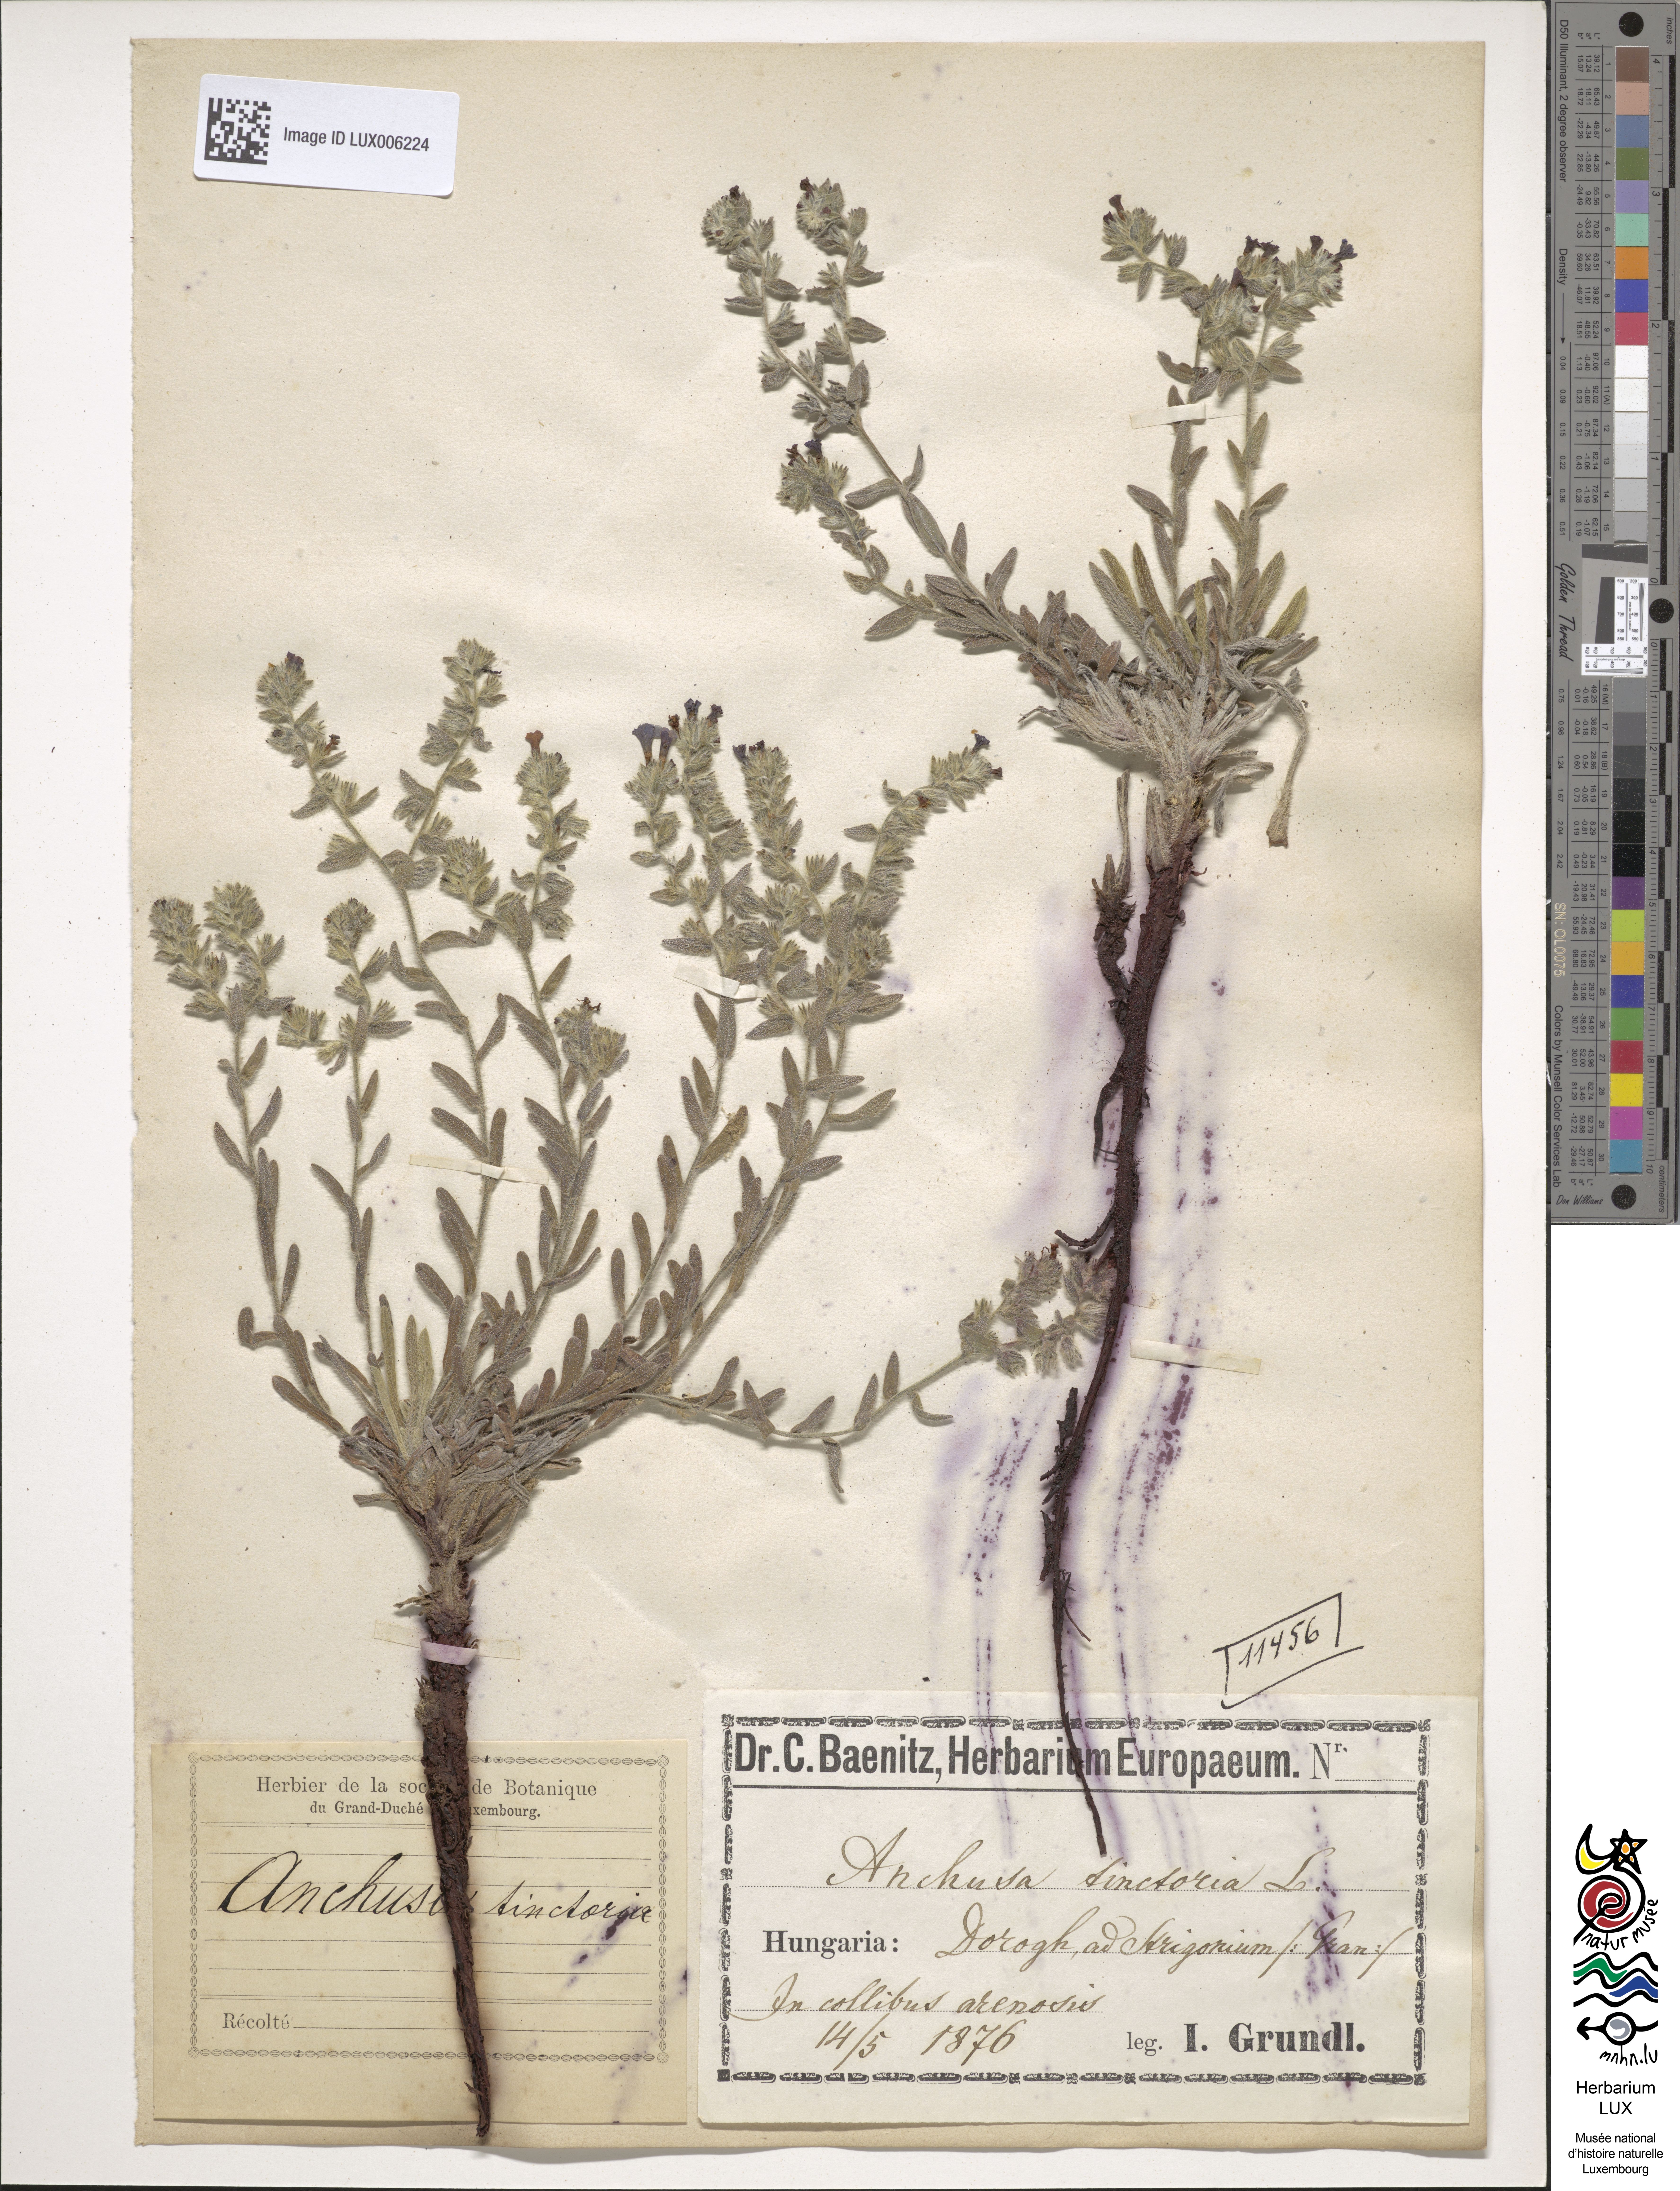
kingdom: Plantae
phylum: Tracheophyta
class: Magnoliopsida
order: Boraginales
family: Boraginaceae
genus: Alkanna
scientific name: Alkanna tinctoria
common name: Dyer's-alkanet
